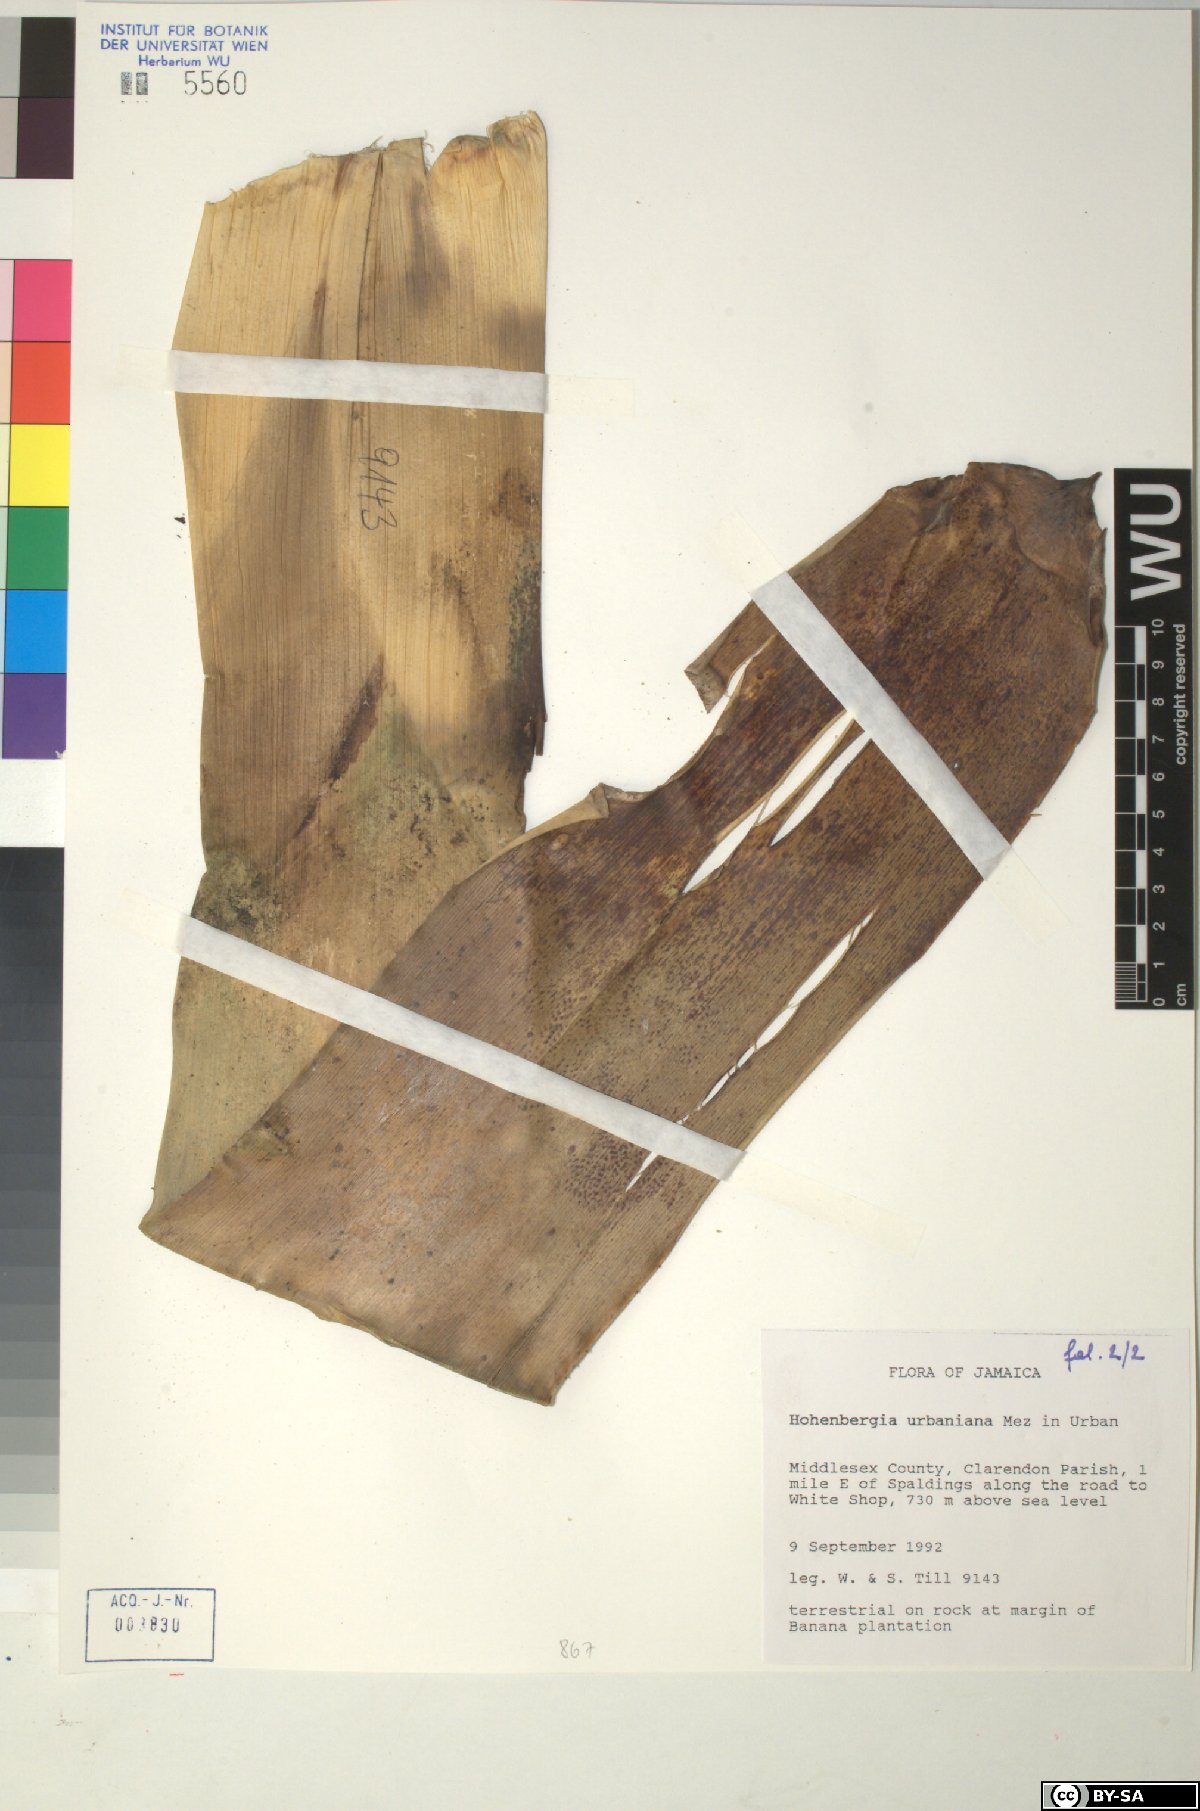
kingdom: Plantae
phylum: Tracheophyta
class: Liliopsida
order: Poales
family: Bromeliaceae
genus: Wittmackia
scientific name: Wittmackia urbaniana
